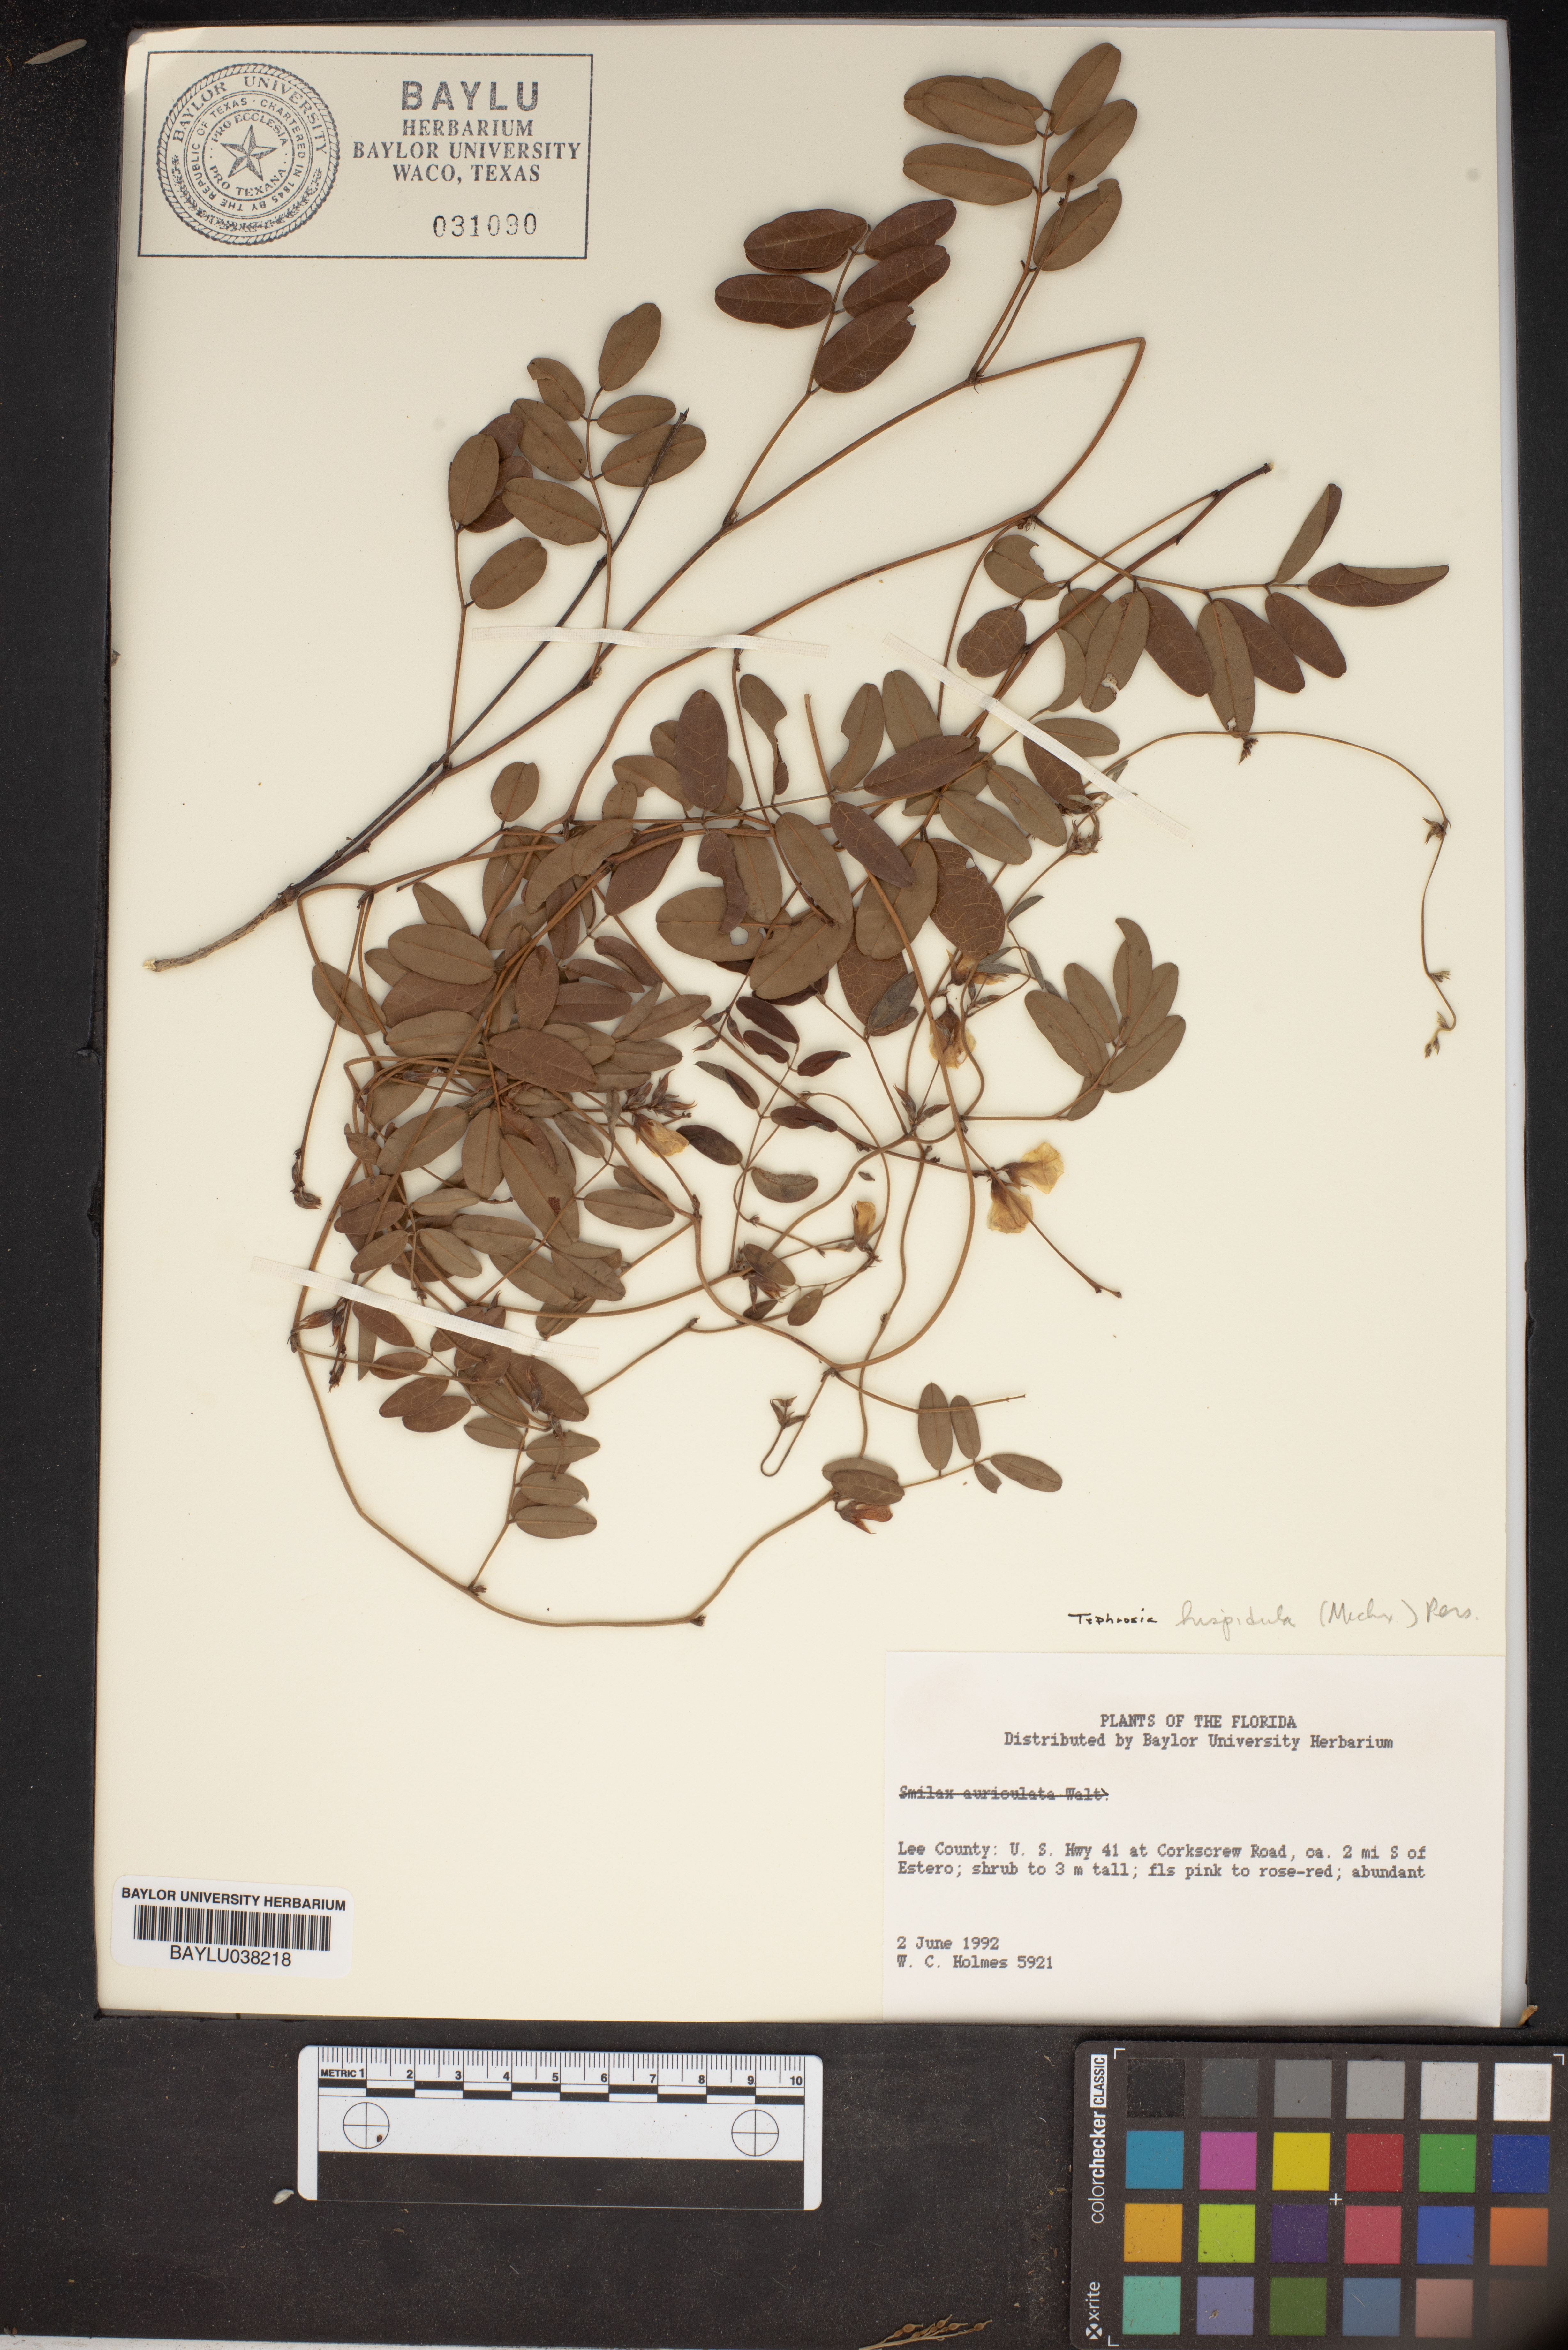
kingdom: Plantae
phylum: Tracheophyta
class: Magnoliopsida
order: Fabales
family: Fabaceae
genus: Tephrosia
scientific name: Tephrosia hispidula
